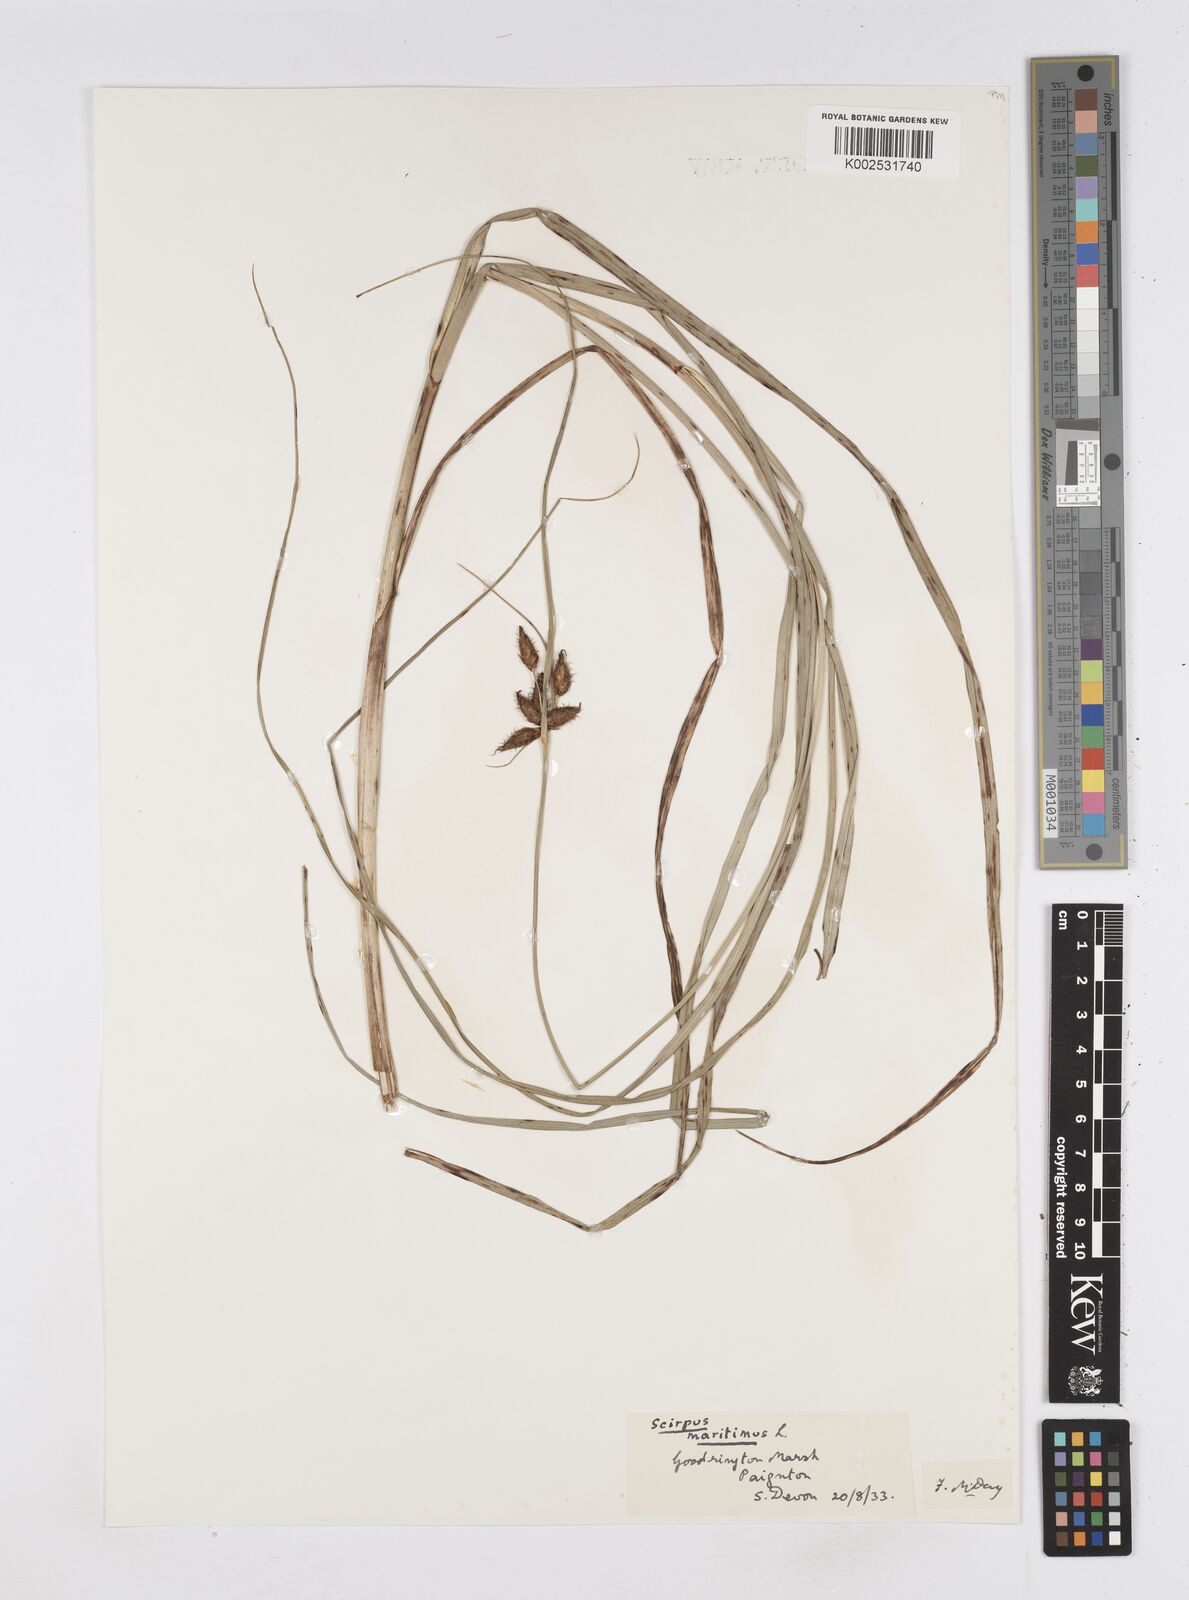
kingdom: Plantae
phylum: Tracheophyta
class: Liliopsida
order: Poales
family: Cyperaceae
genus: Bolboschoenus
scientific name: Bolboschoenus maritimus
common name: Sea club-rush
